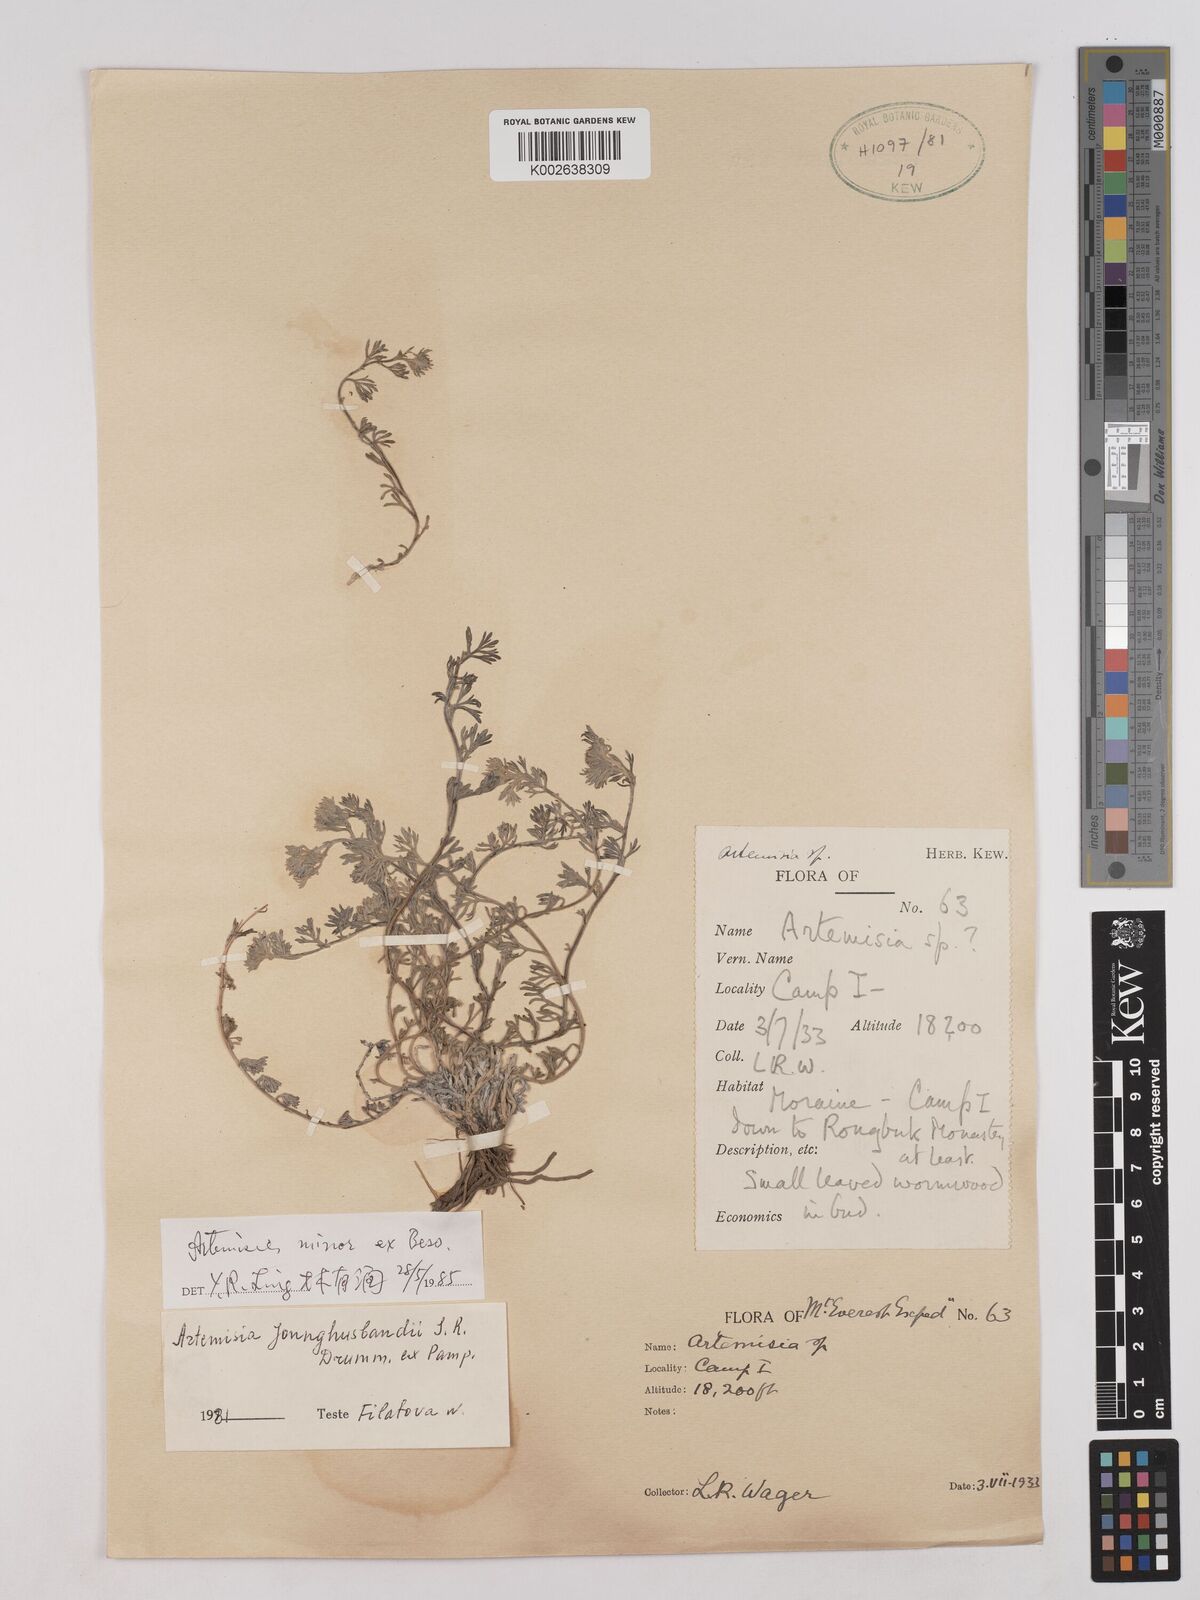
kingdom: Plantae
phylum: Tracheophyta
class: Magnoliopsida
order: Asterales
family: Asteraceae
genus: Artemisia
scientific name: Artemisia minor
